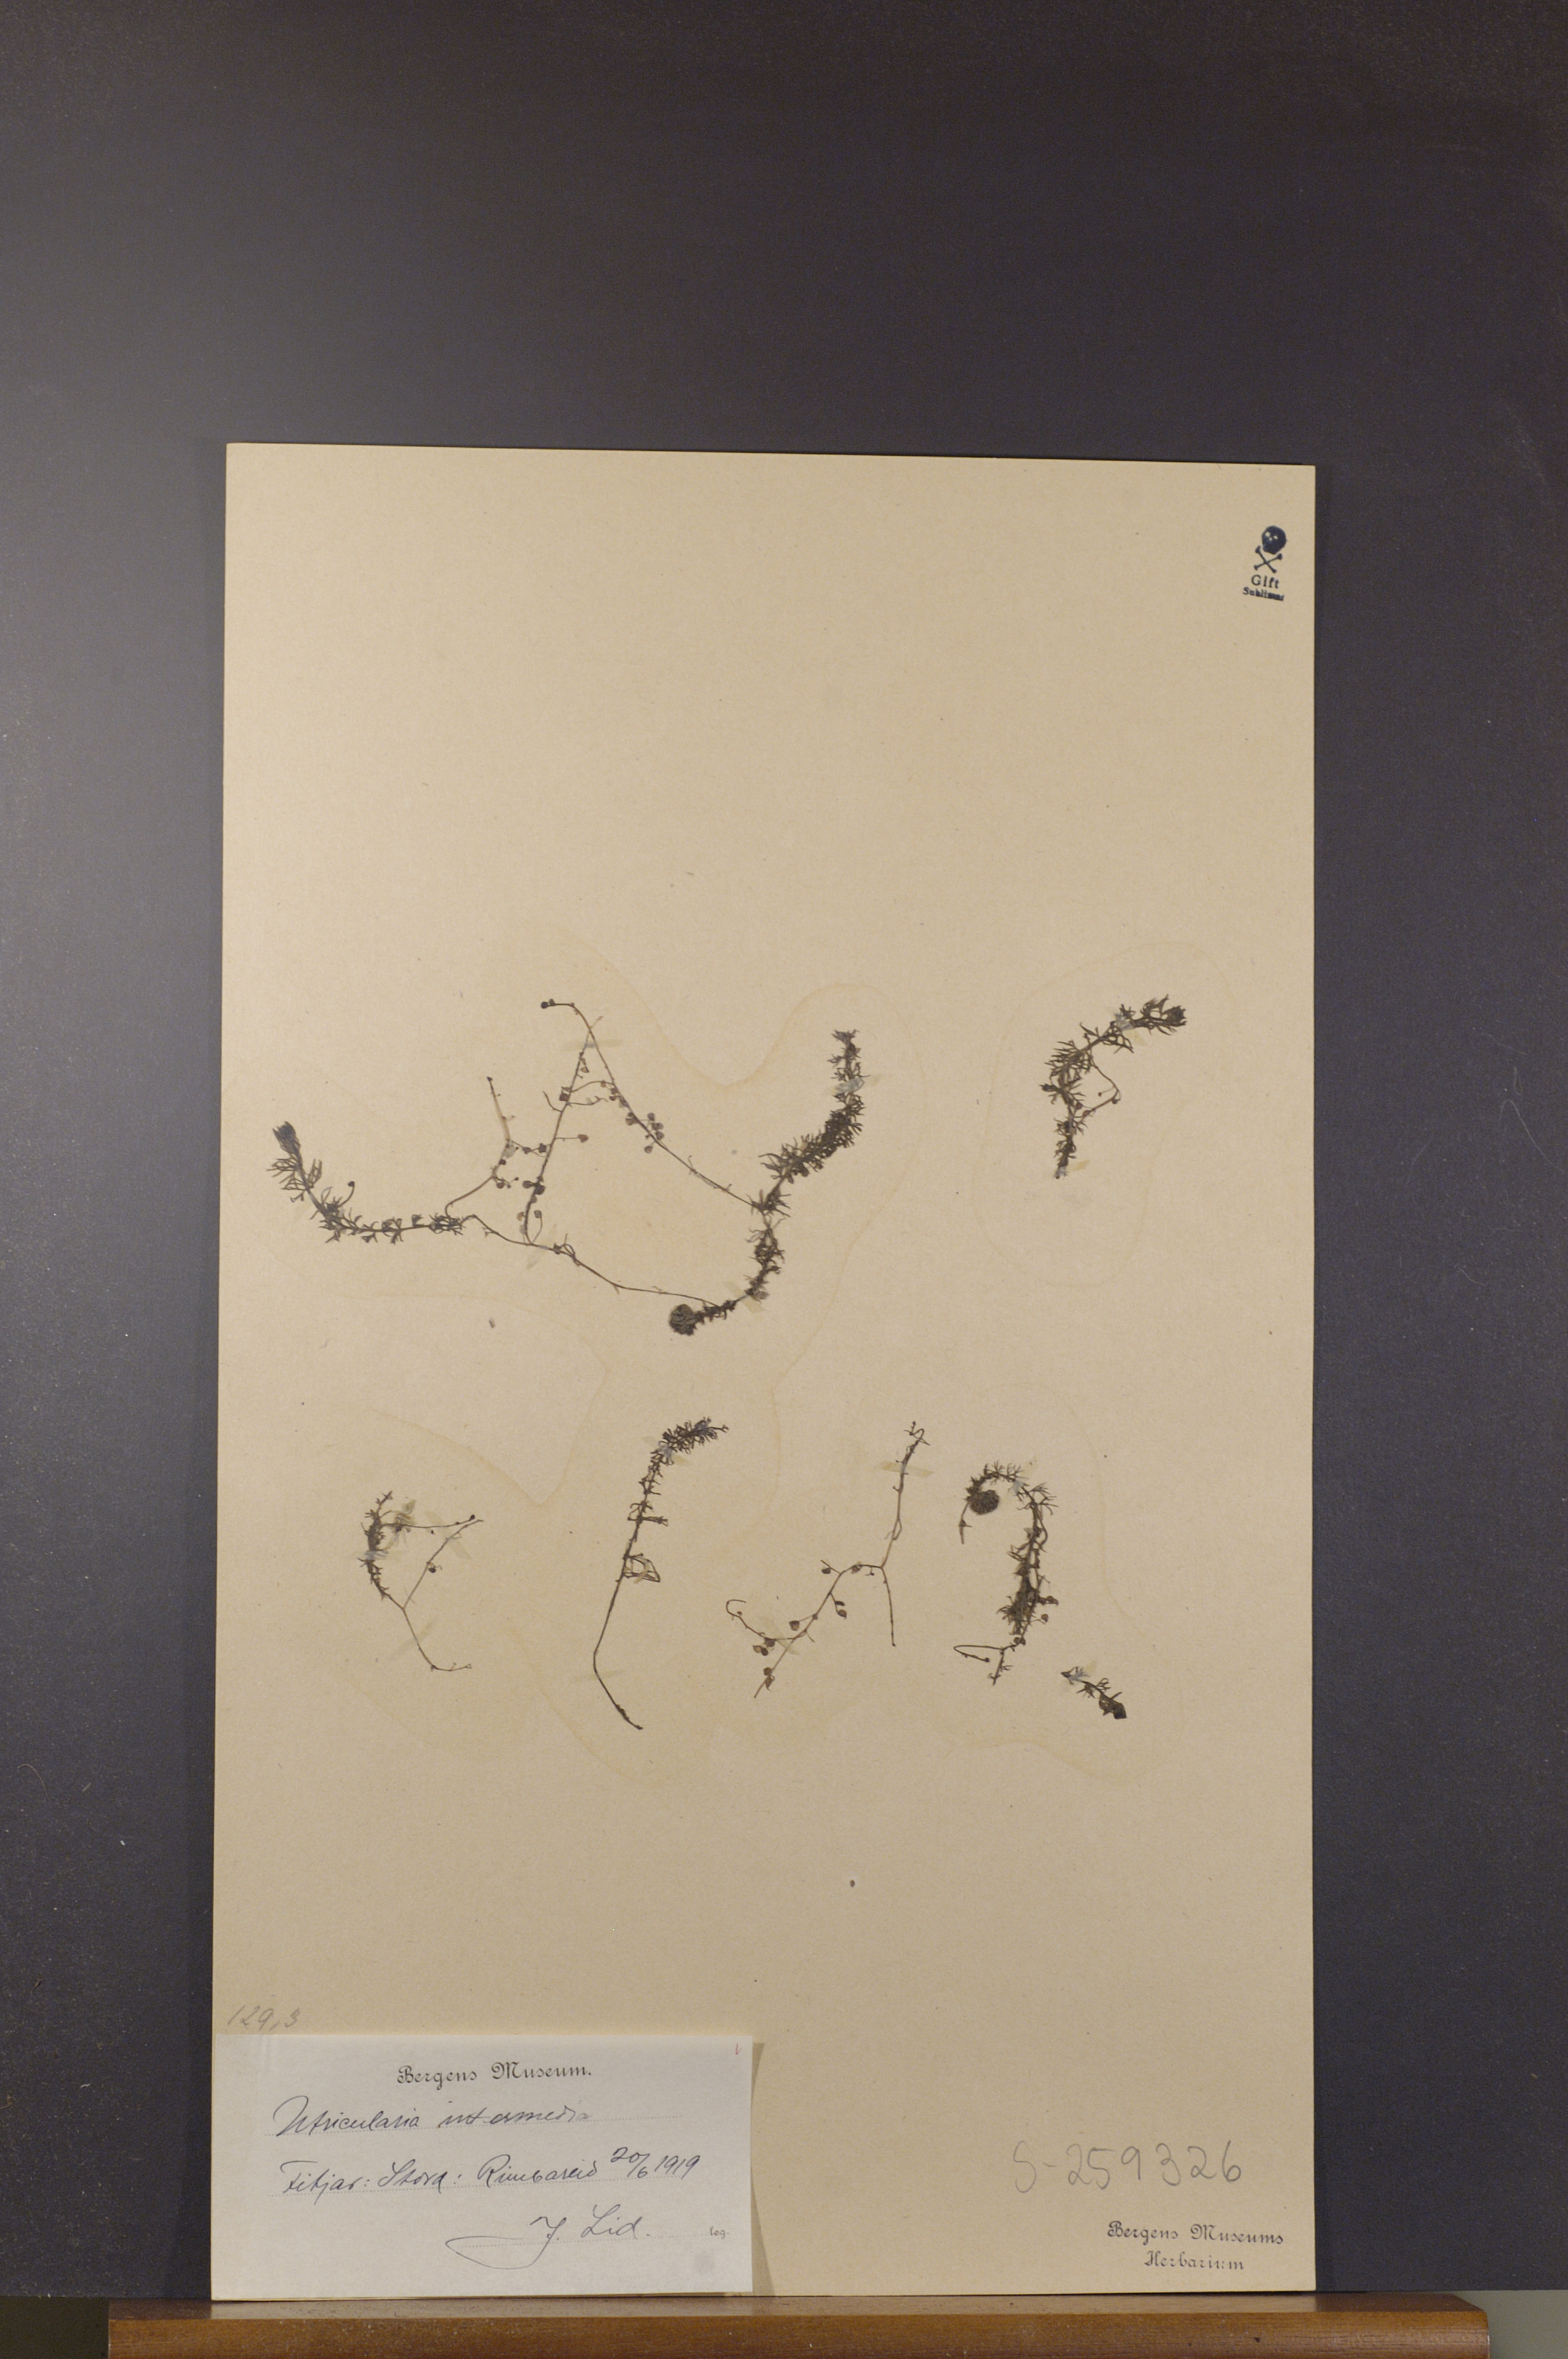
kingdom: Plantae
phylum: Tracheophyta
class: Magnoliopsida
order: Lamiales
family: Lentibulariaceae
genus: Utricularia
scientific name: Utricularia intermedia
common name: Intermediate bladderwort
